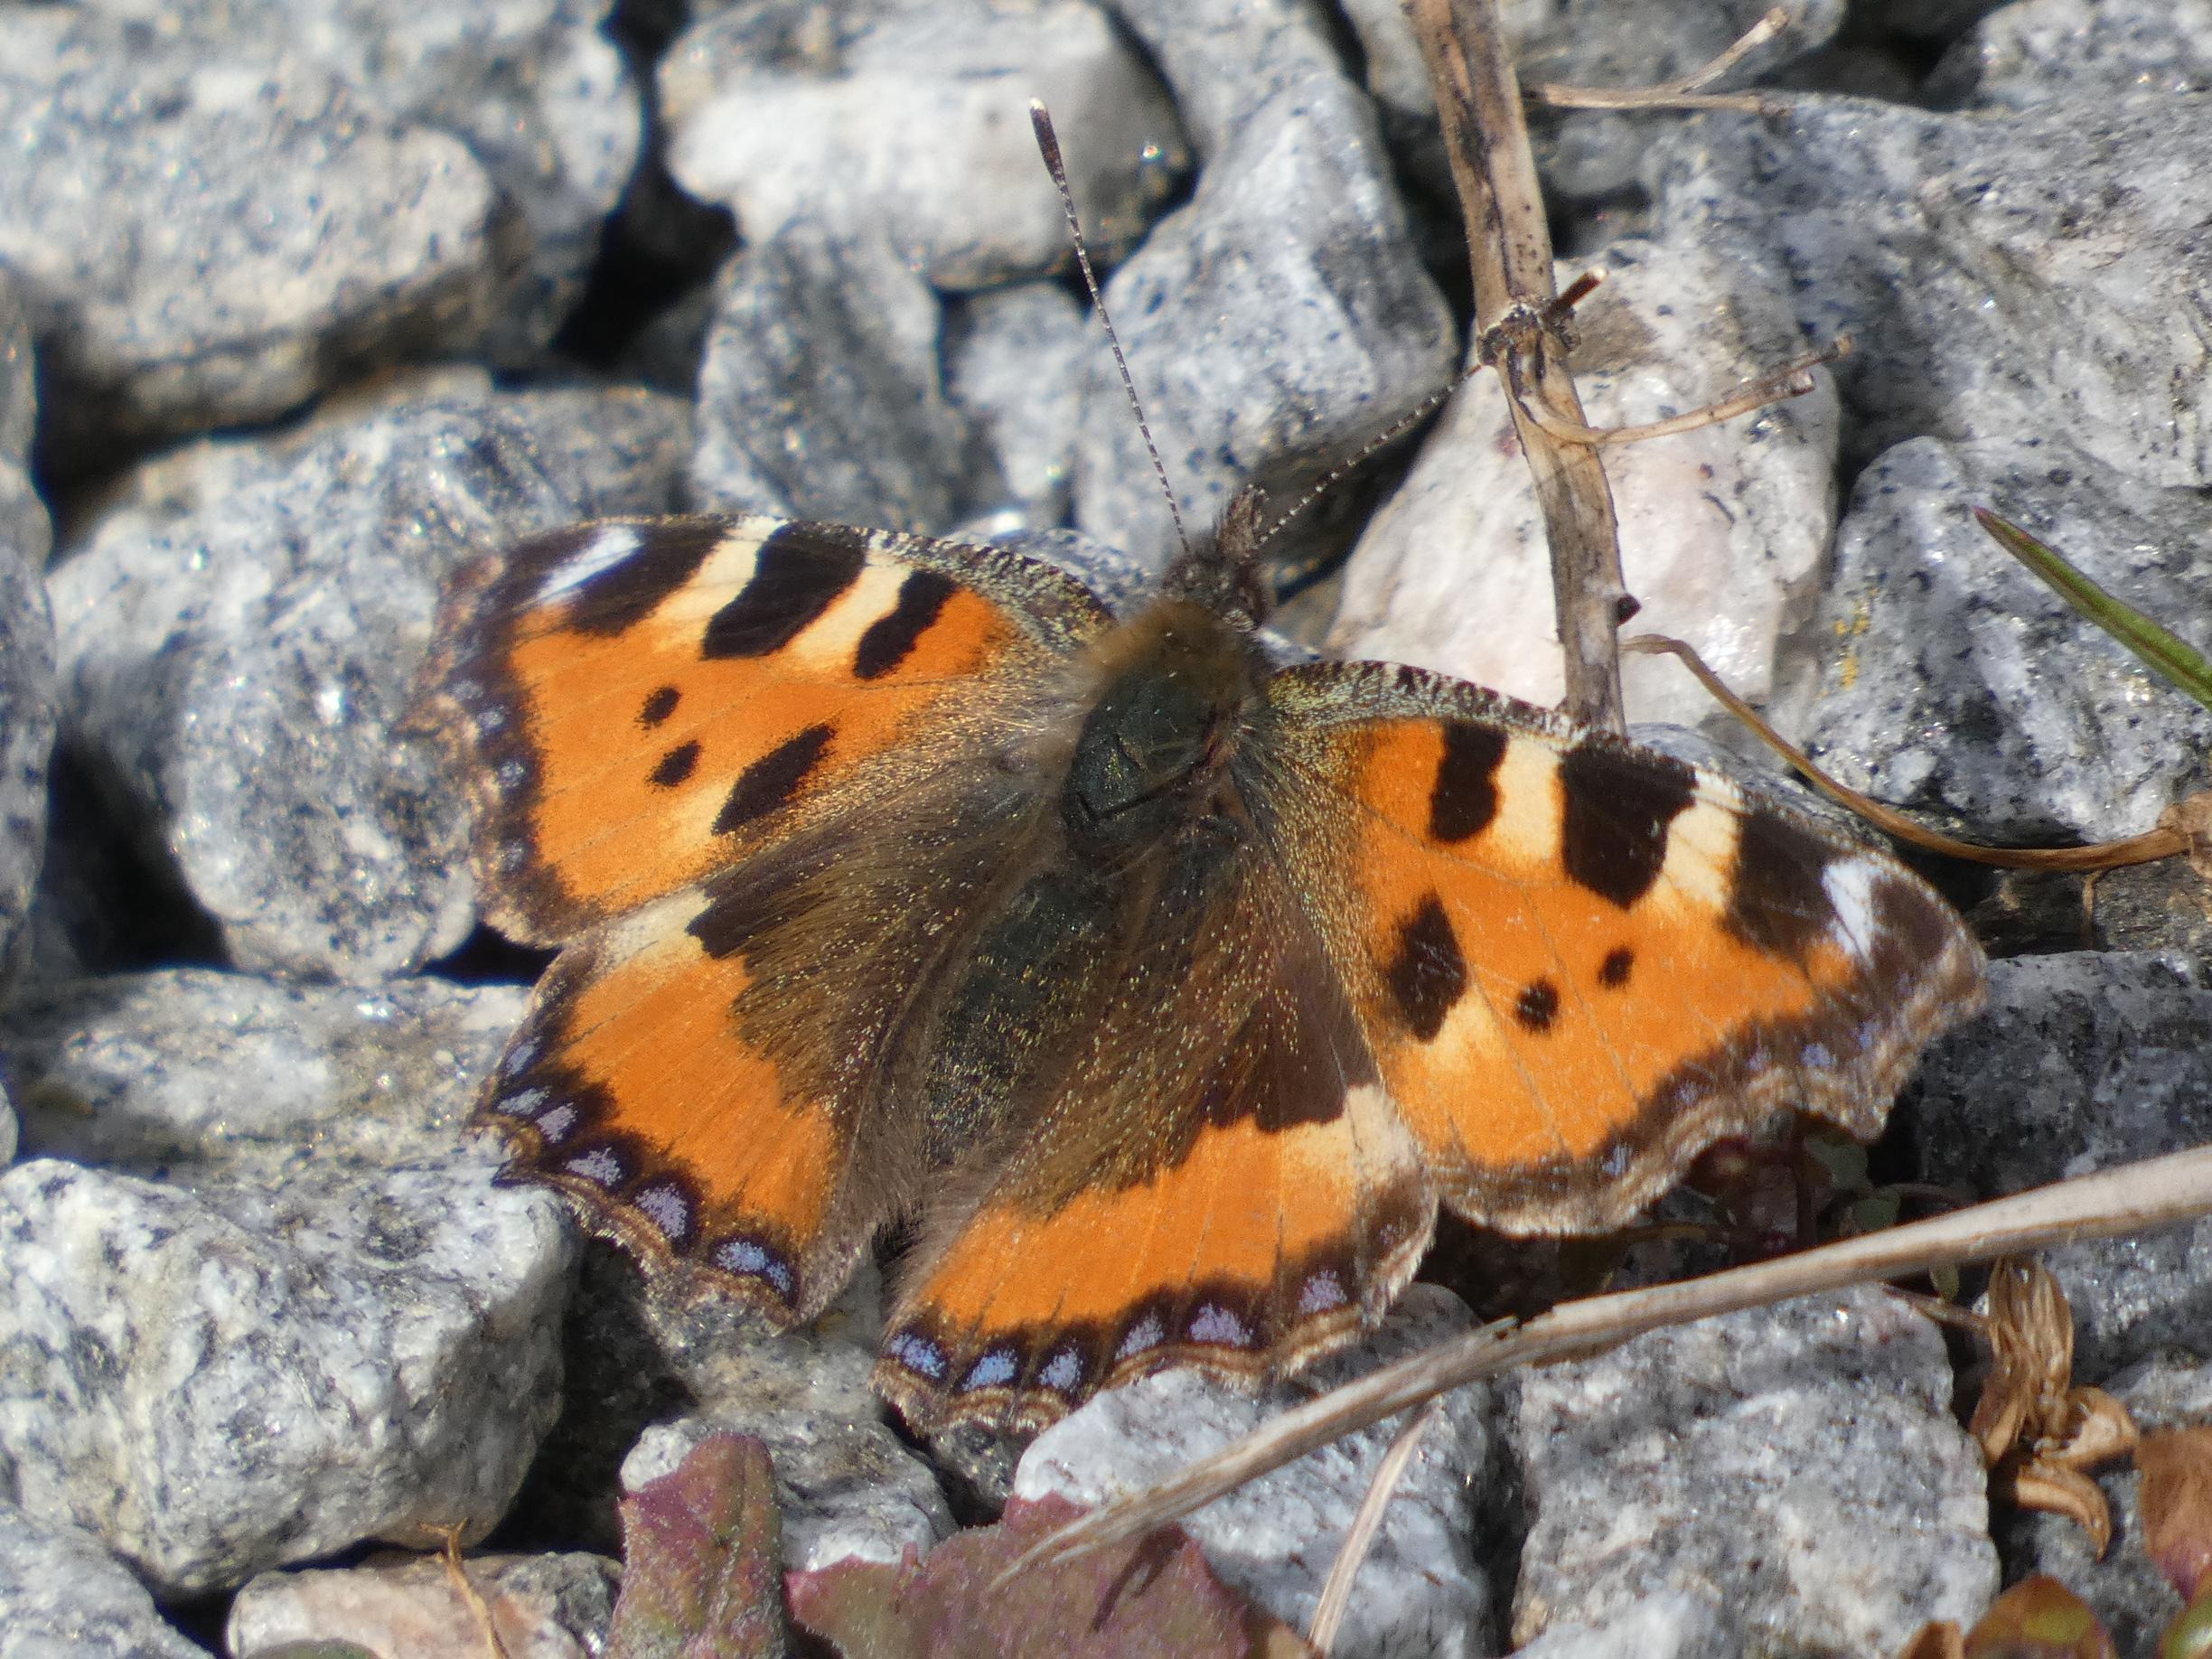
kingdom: Animalia
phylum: Arthropoda
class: Insecta
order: Lepidoptera
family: Nymphalidae
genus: Aglais
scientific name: Aglais urticae
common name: Nældens takvinge
